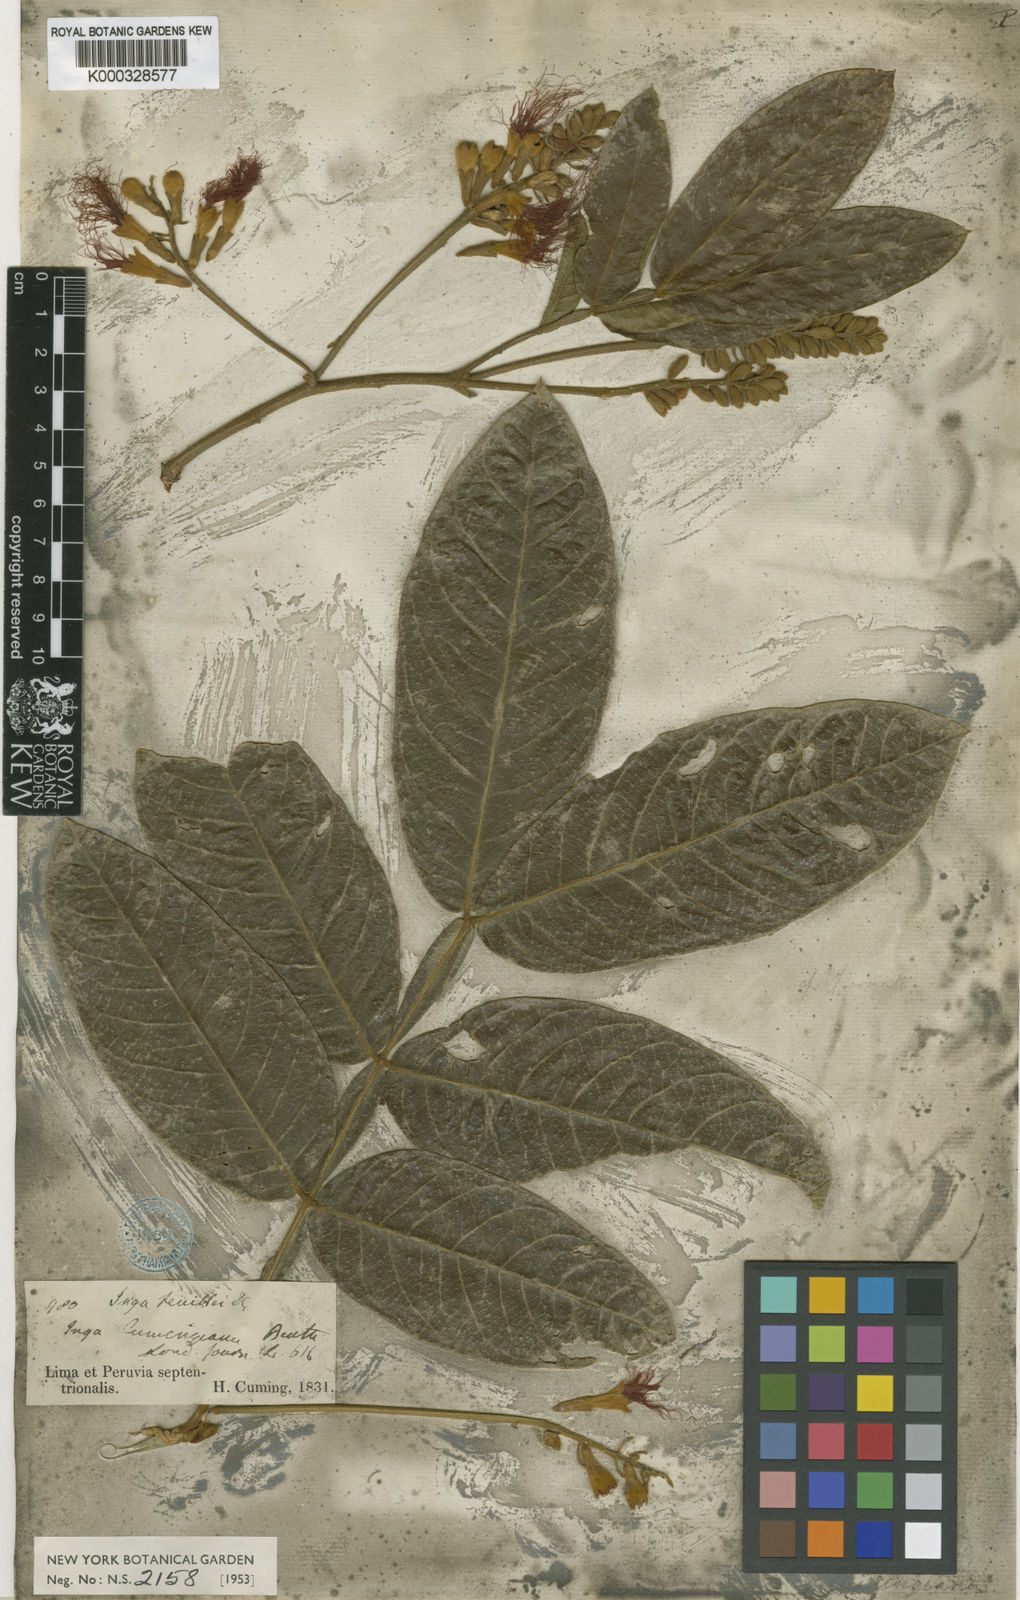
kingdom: Plantae
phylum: Tracheophyta
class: Magnoliopsida
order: Fabales
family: Fabaceae
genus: Inga
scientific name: Inga feuillei
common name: Ice cream bean
